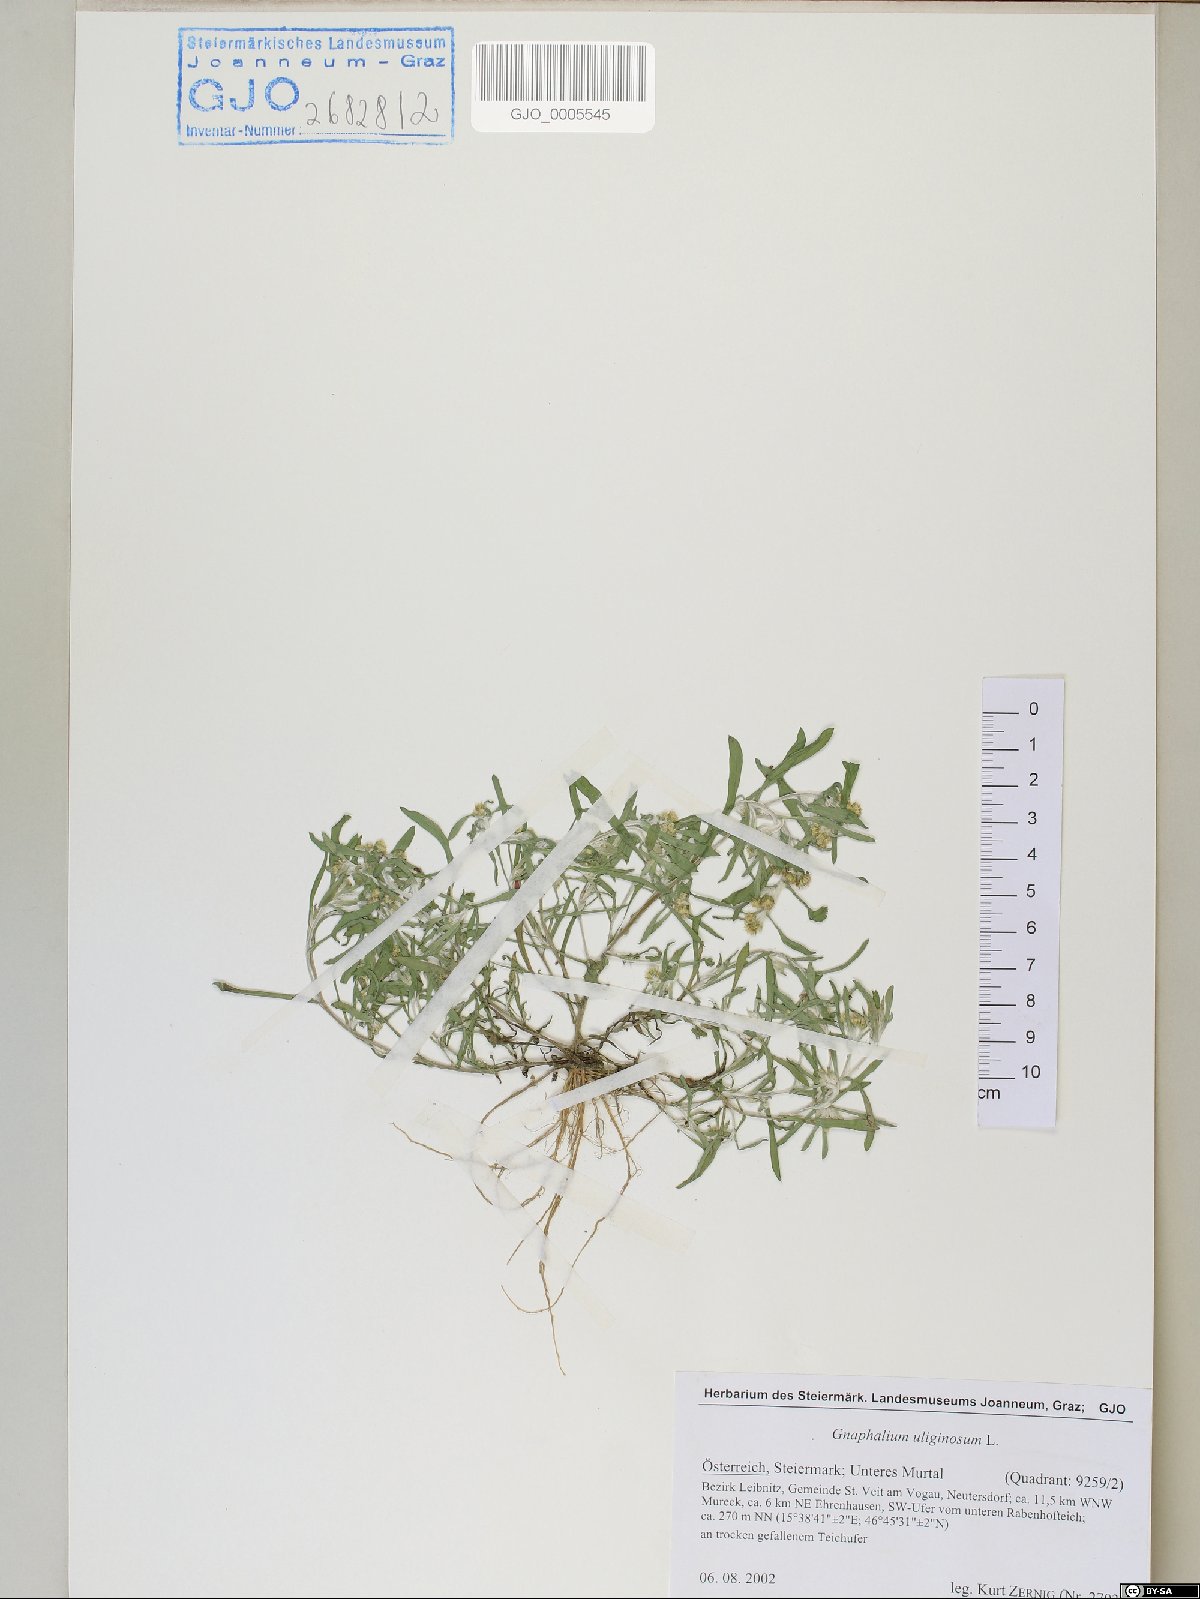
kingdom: Plantae
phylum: Tracheophyta
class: Magnoliopsida
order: Asterales
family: Asteraceae
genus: Gnaphalium
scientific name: Gnaphalium uliginosum
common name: Marsh cudweed
